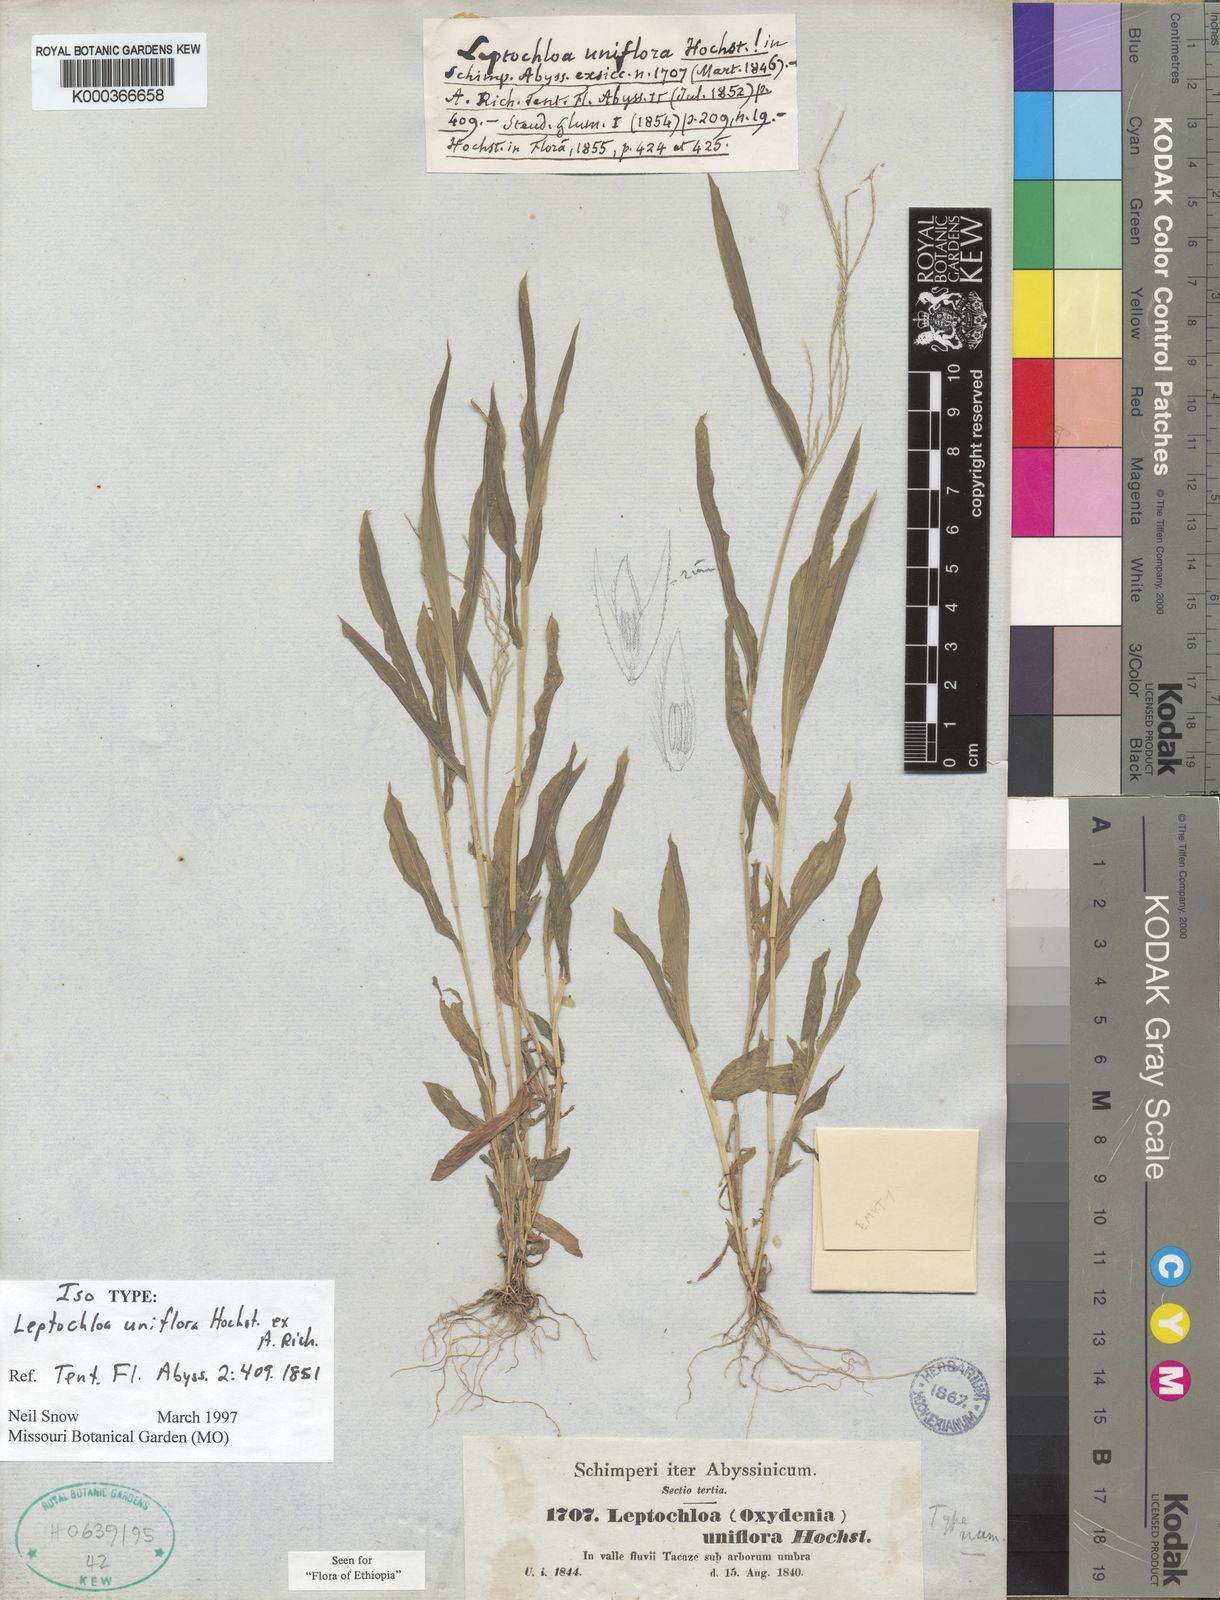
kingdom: Plantae
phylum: Tracheophyta
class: Liliopsida
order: Poales
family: Poaceae
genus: Trigonochloa
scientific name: Trigonochloa uniflora
